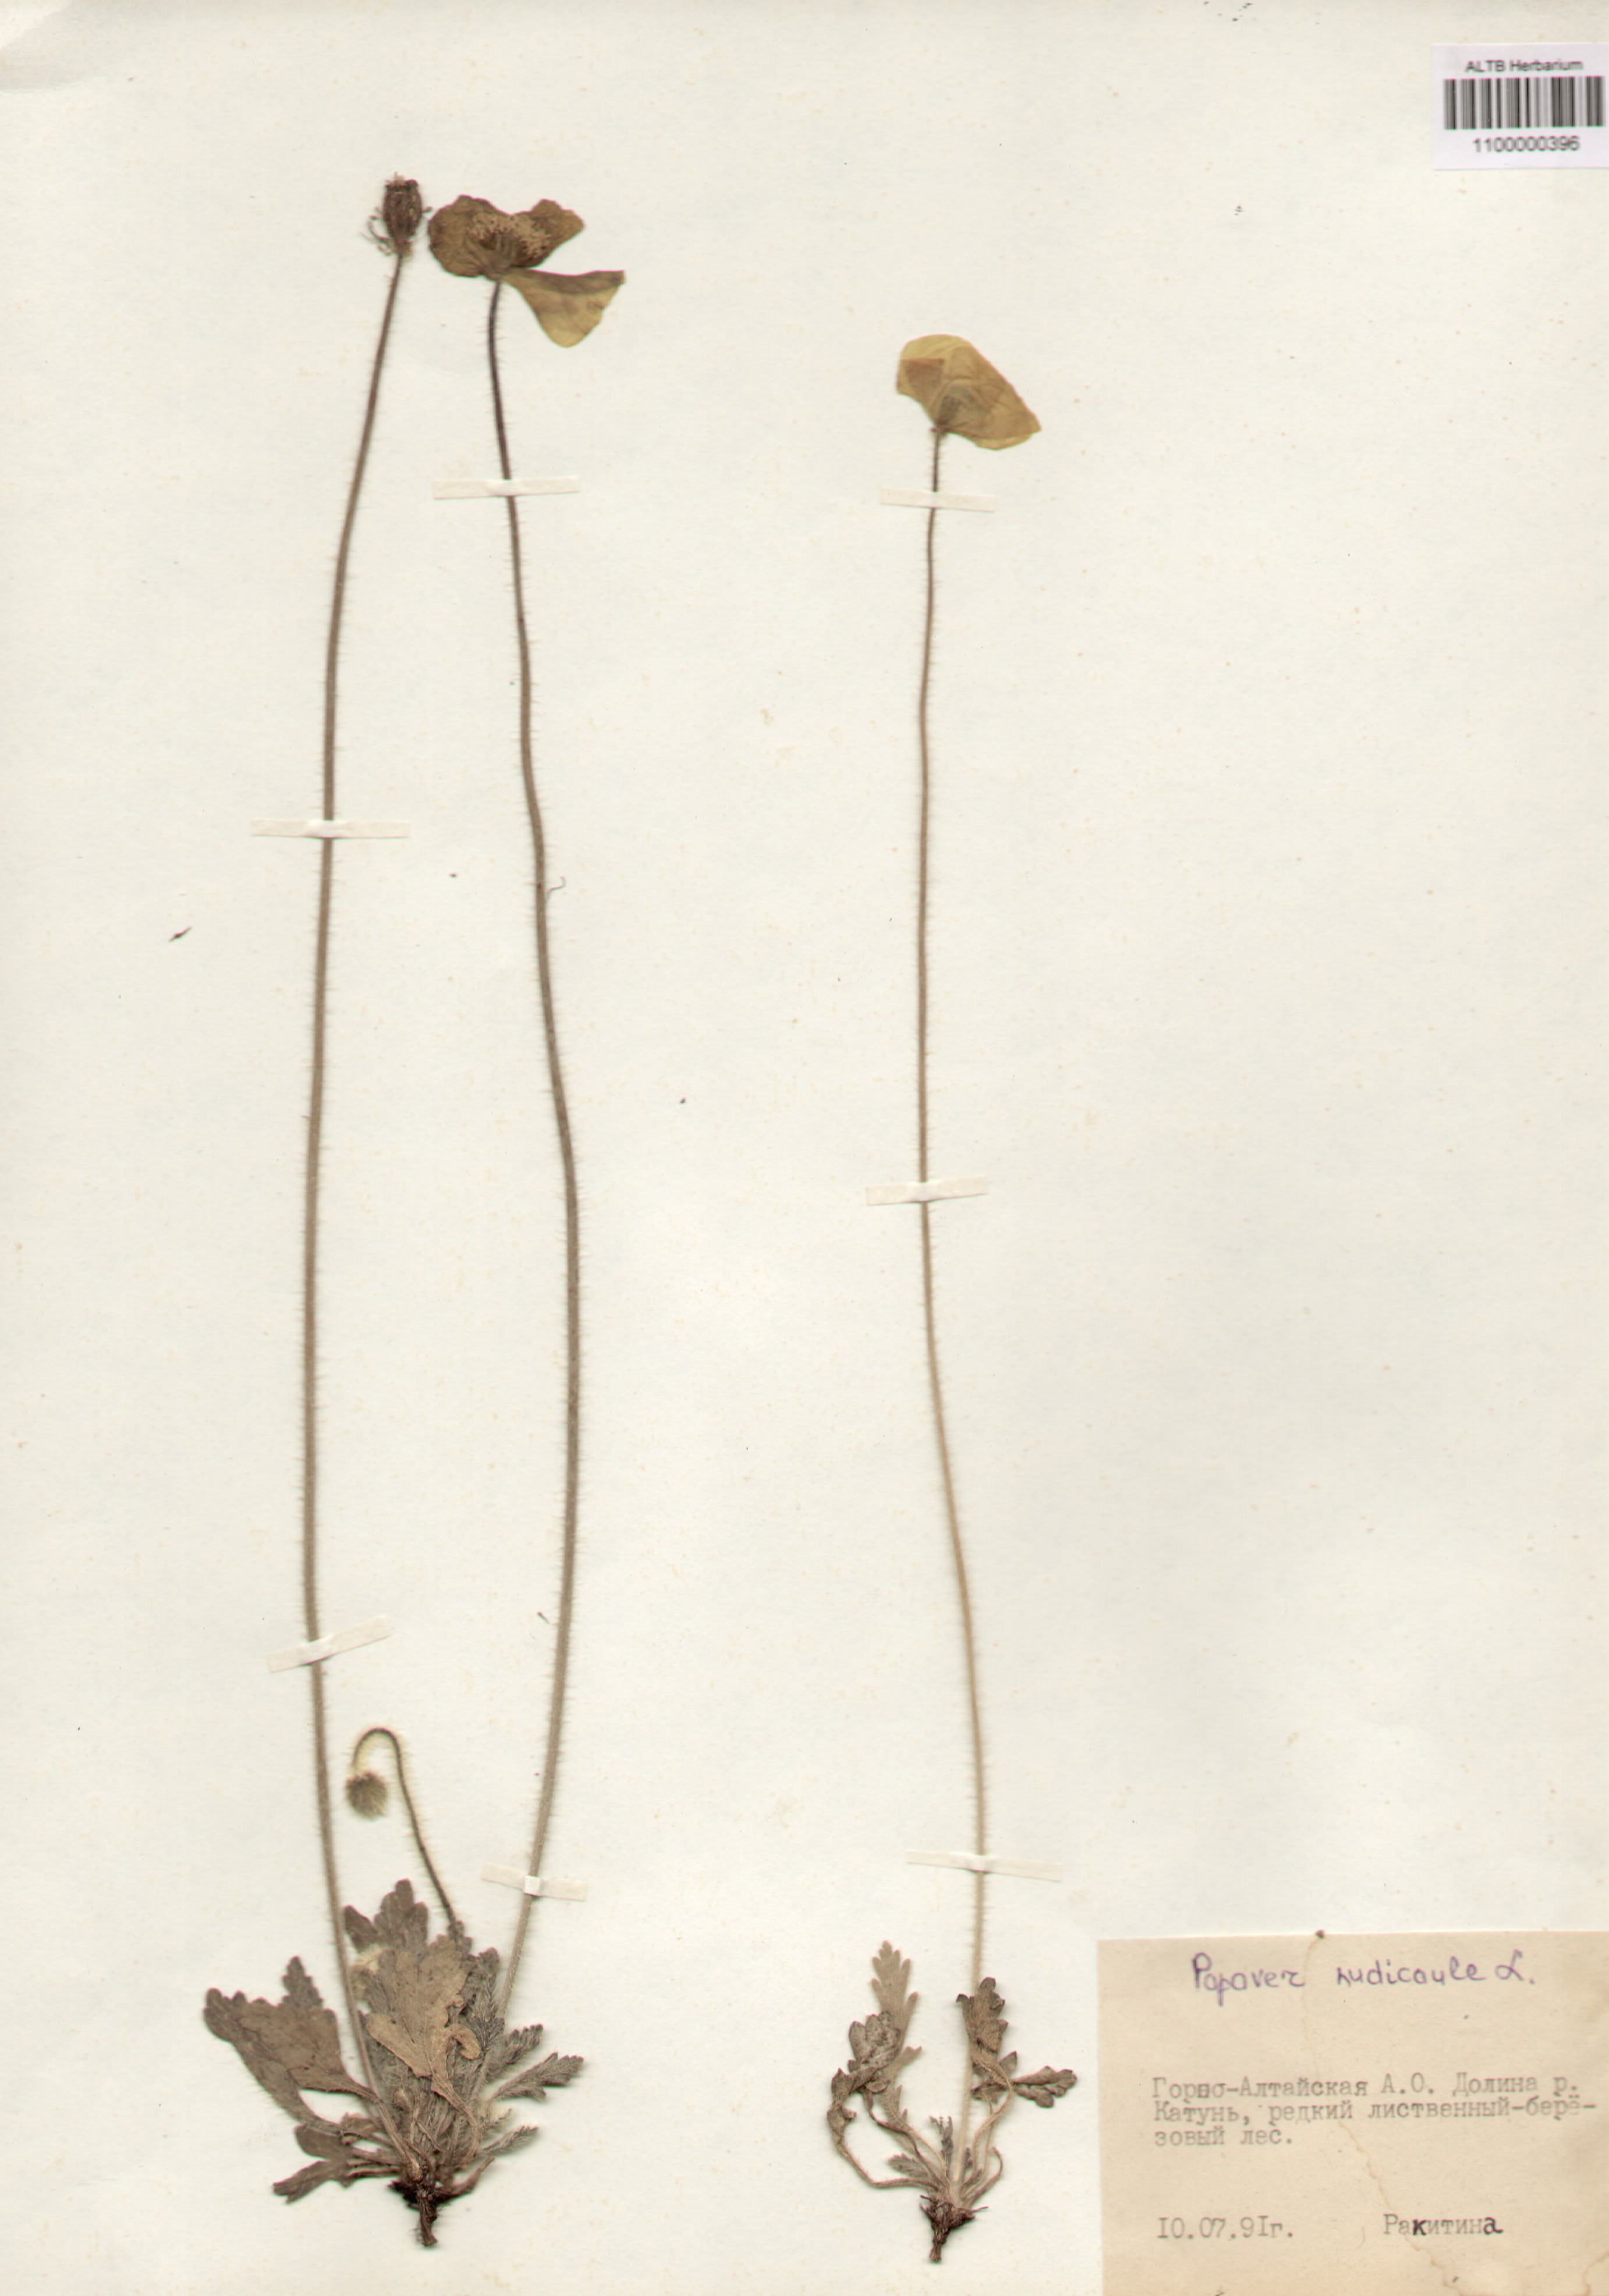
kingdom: Plantae
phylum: Tracheophyta
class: Magnoliopsida
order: Ranunculales
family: Papaveraceae
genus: Papaver
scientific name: Papaver nudicaule
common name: Arctic poppy
